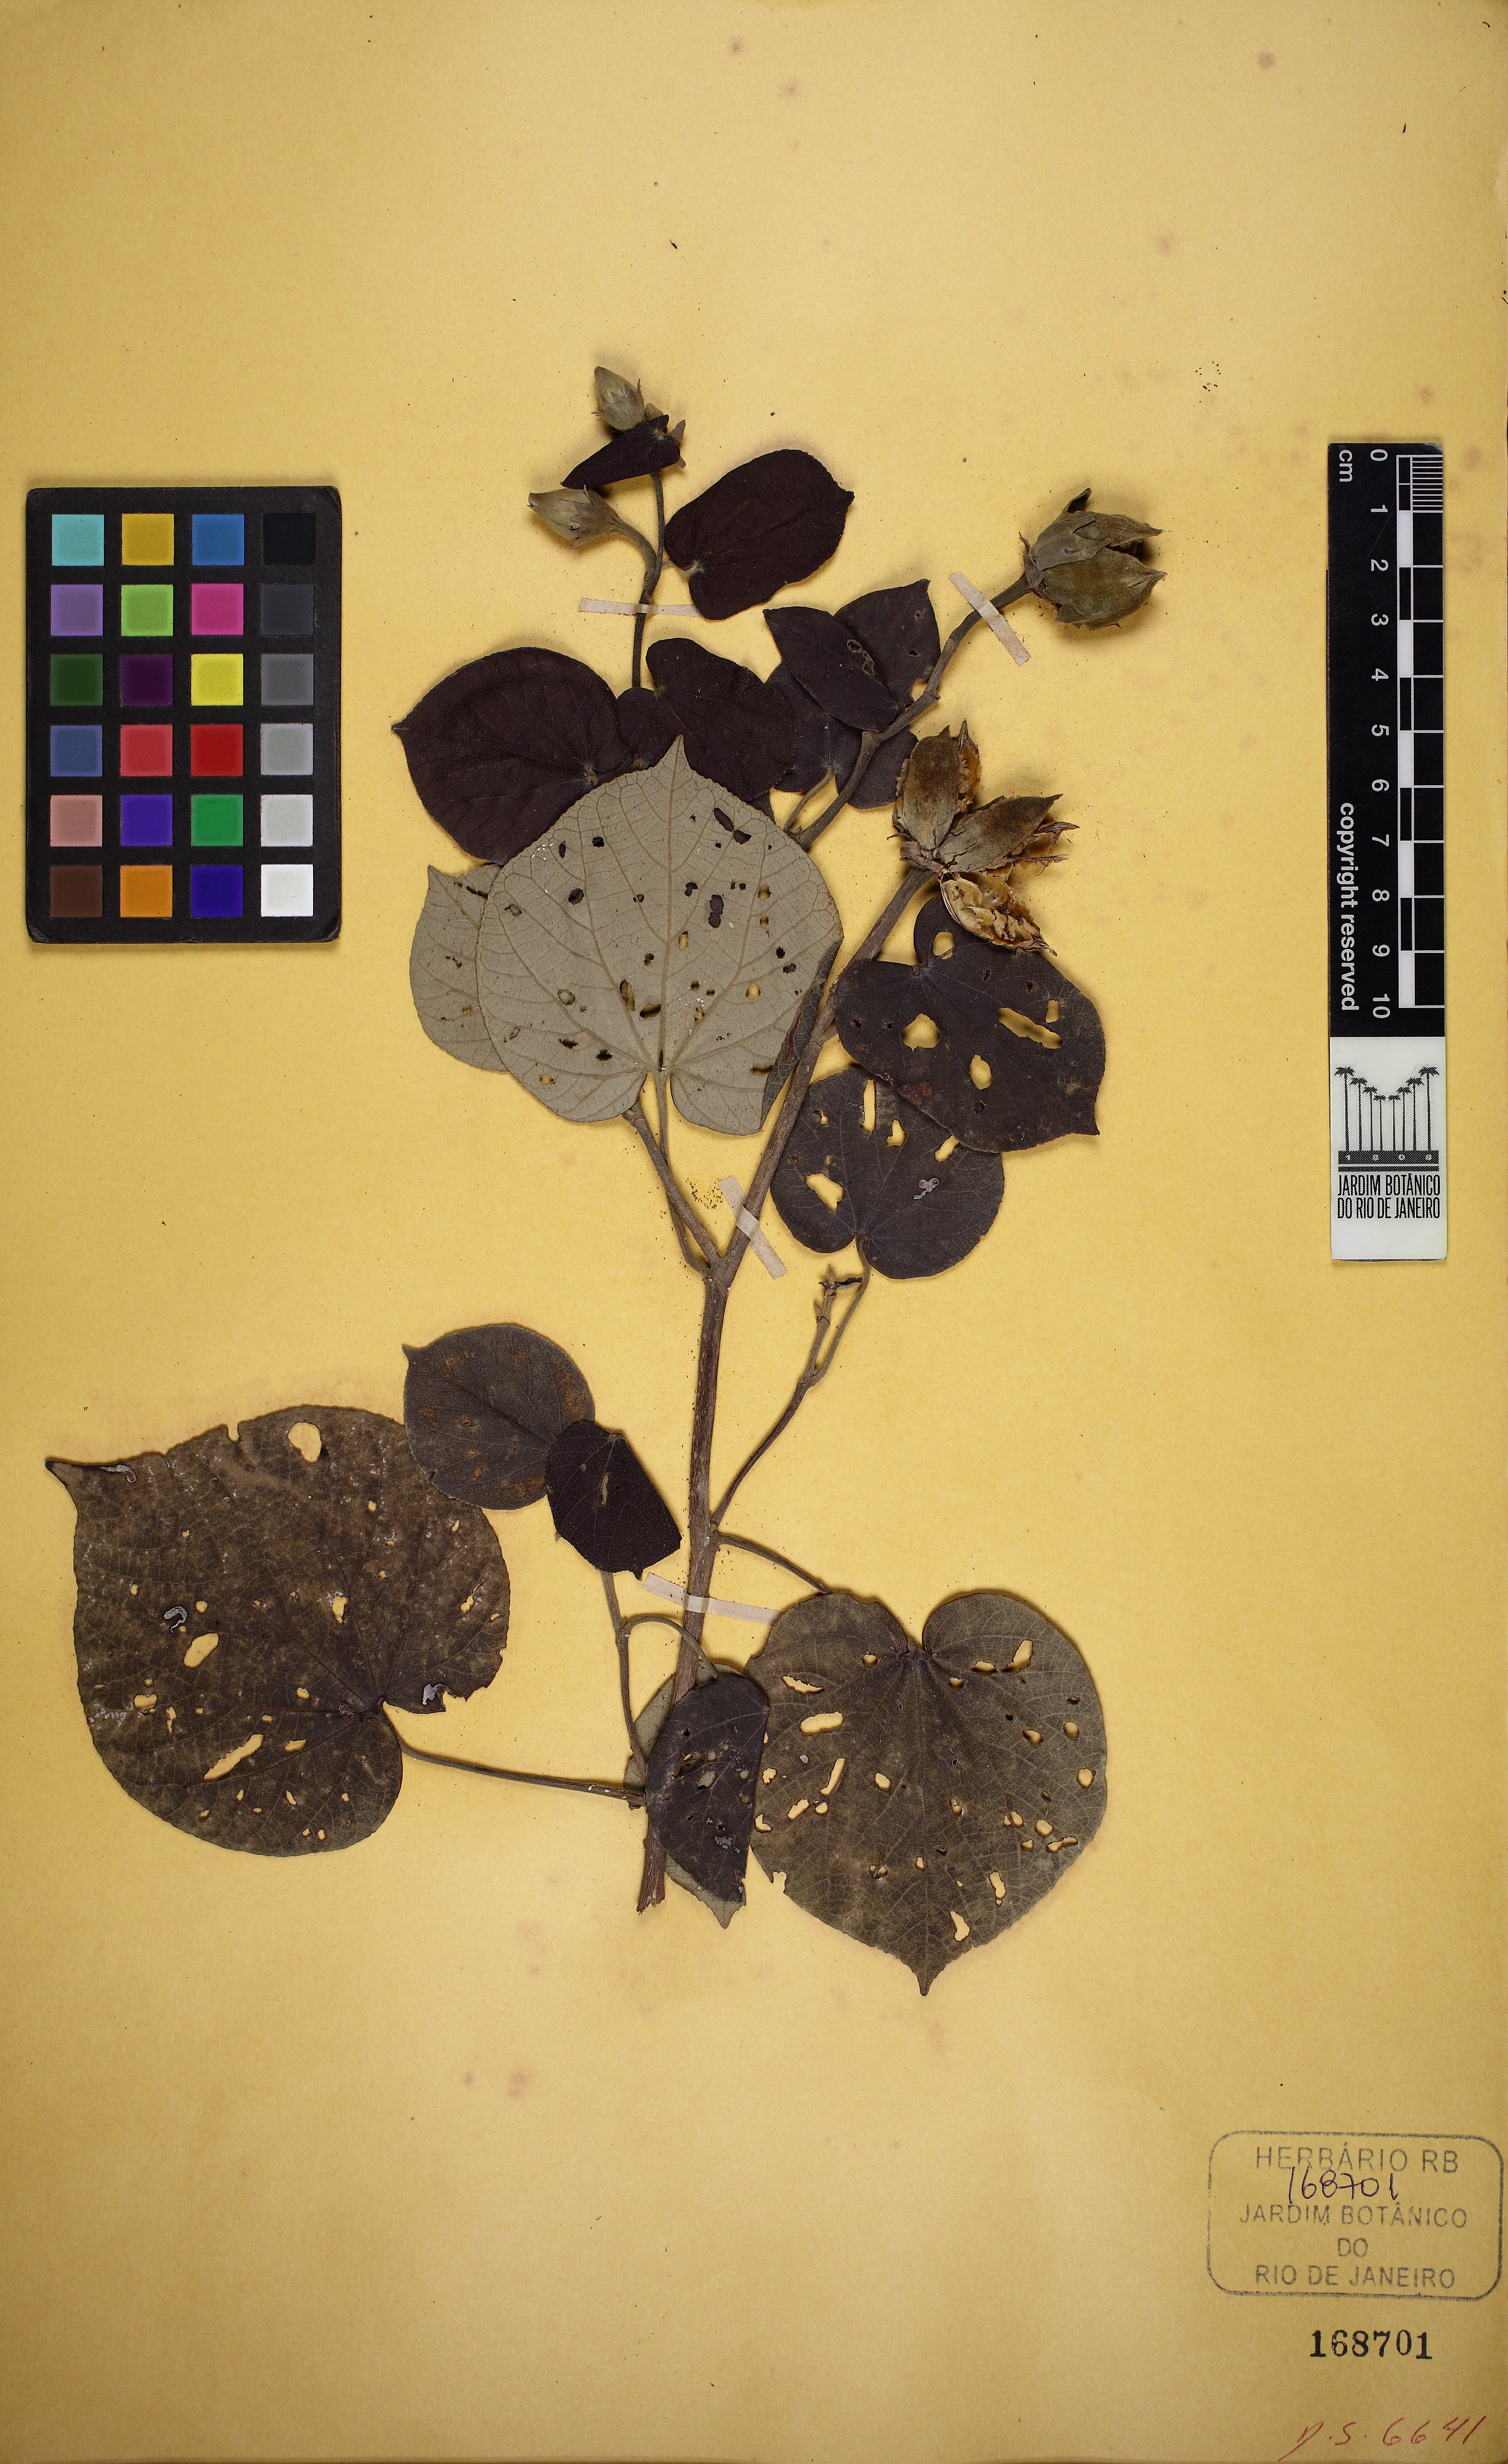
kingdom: Plantae
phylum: Tracheophyta
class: Magnoliopsida
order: Malvales
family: Malvaceae
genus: Talipariti
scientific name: Talipariti tiliaceum
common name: Sea hibiscus
